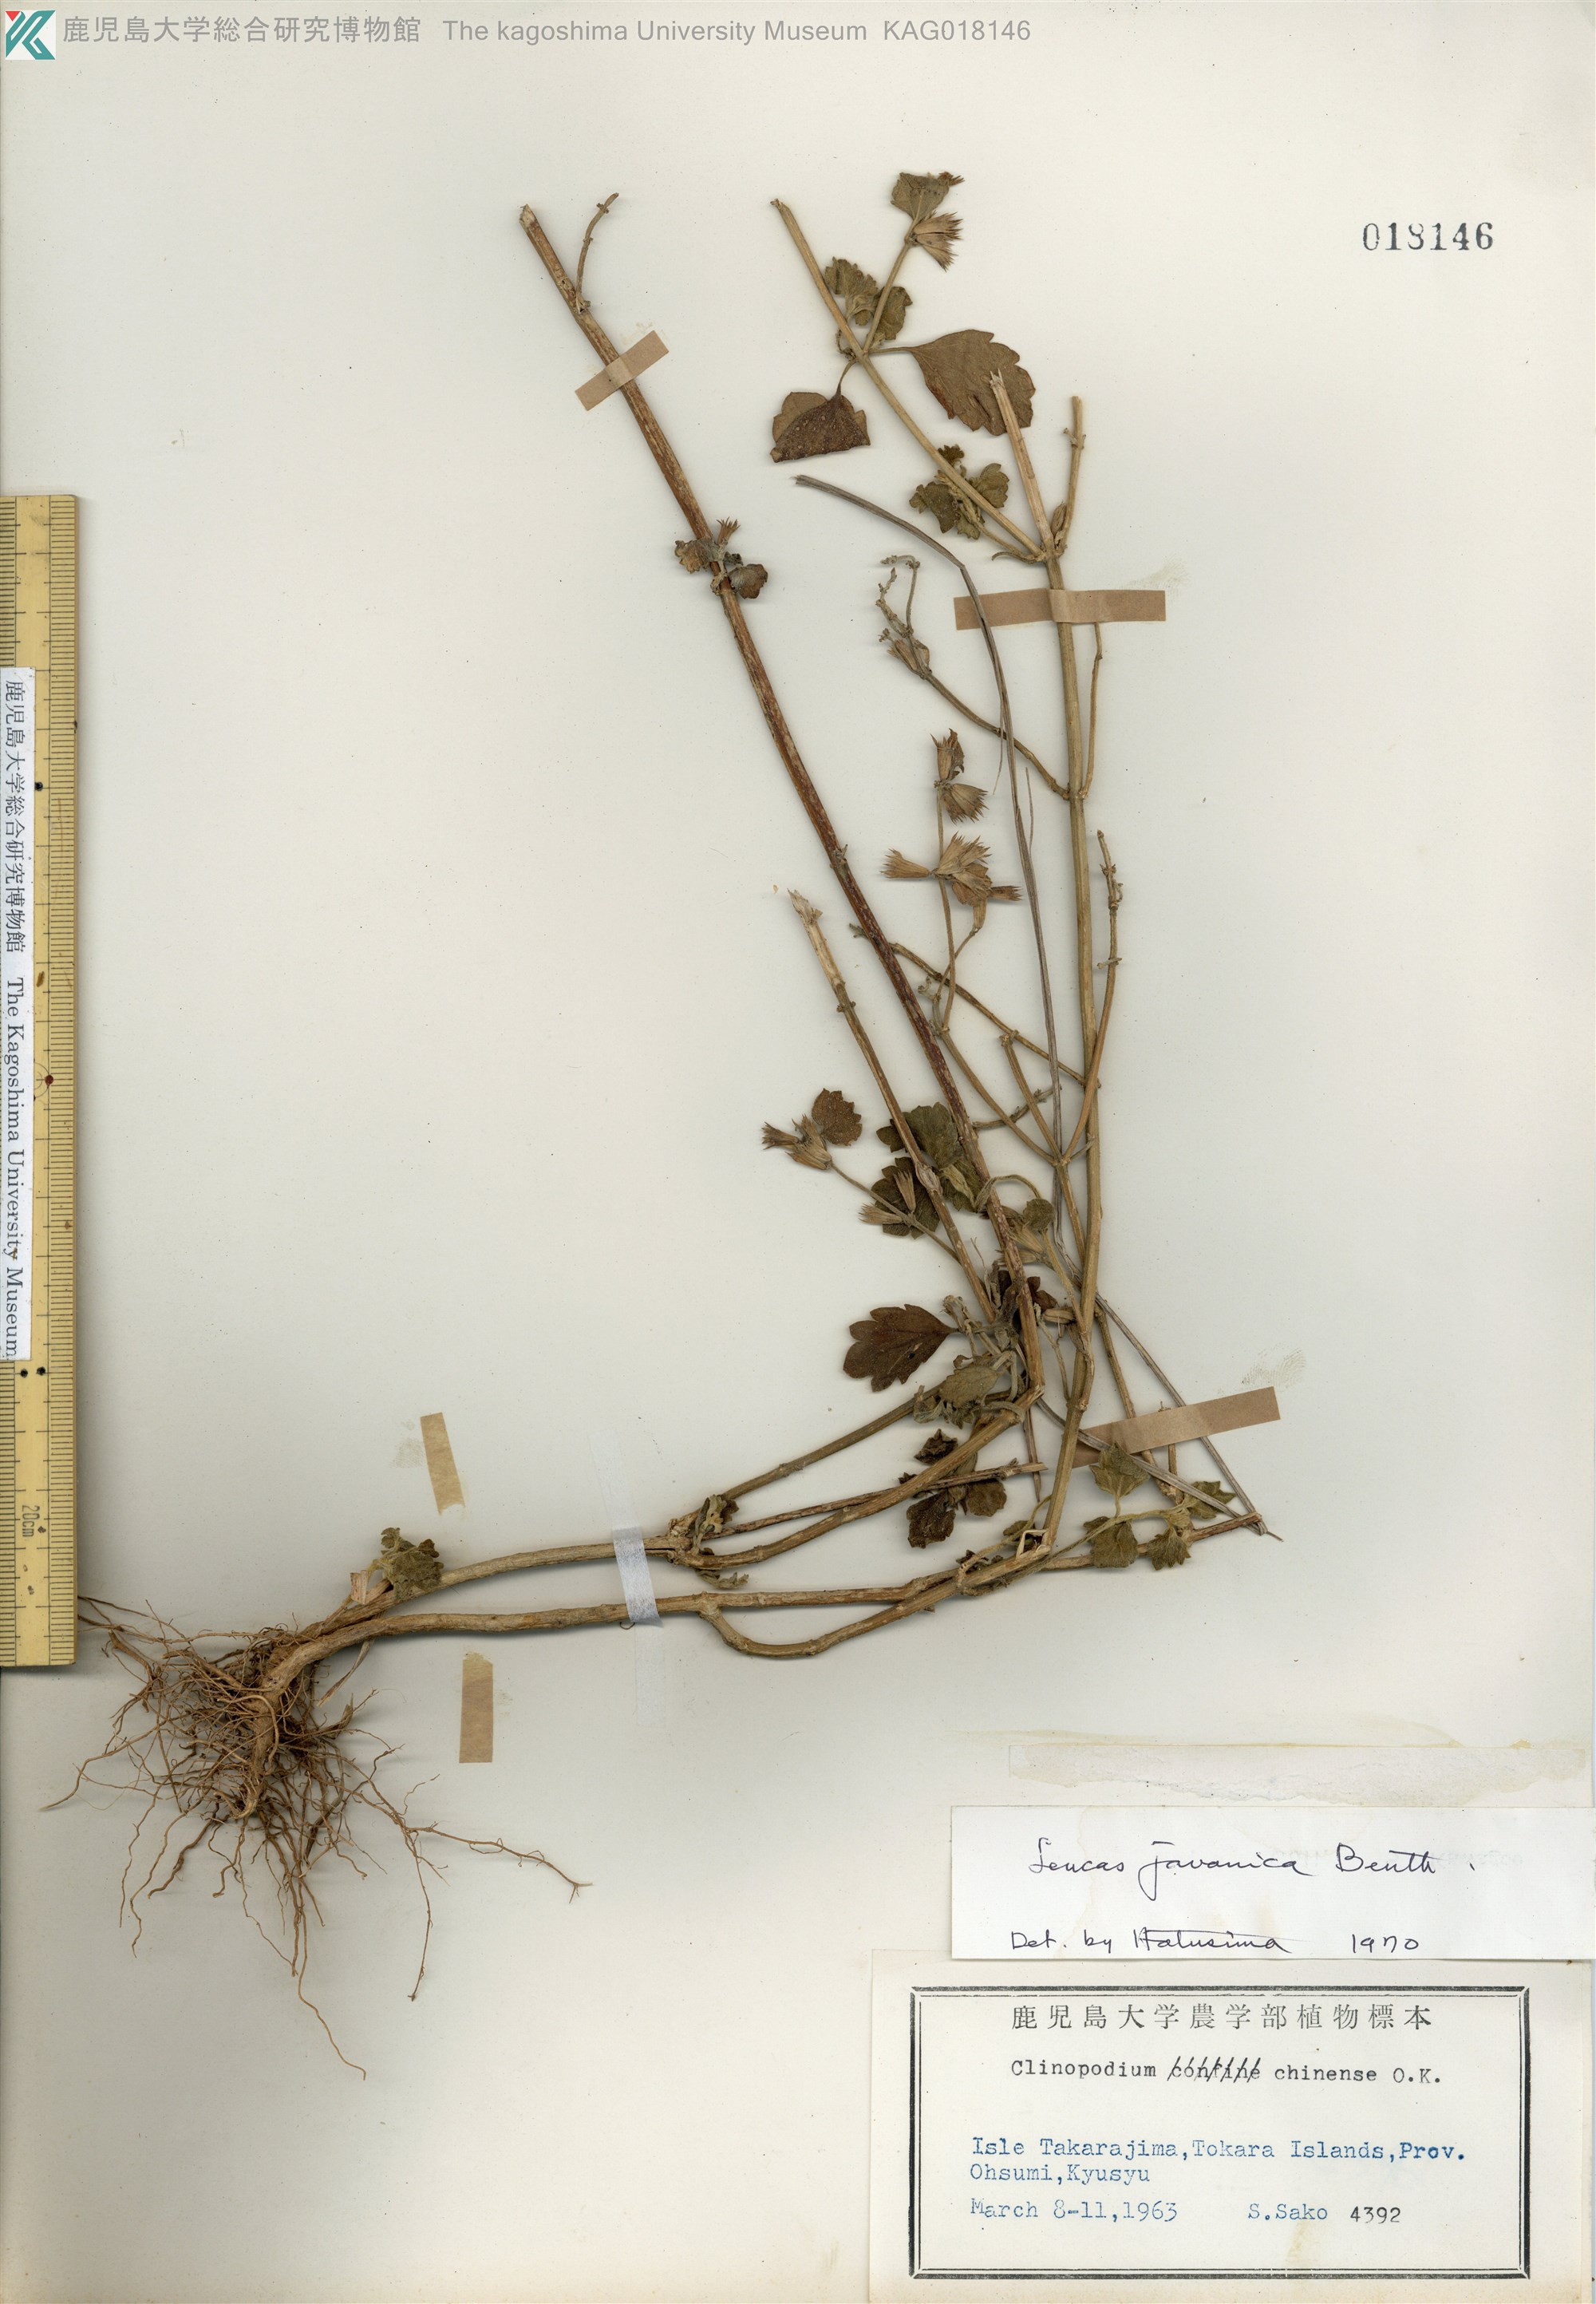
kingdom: Plantae
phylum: Tracheophyta
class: Magnoliopsida
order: Lamiales
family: Lamiaceae
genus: Leucas
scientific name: Leucas chinensis
